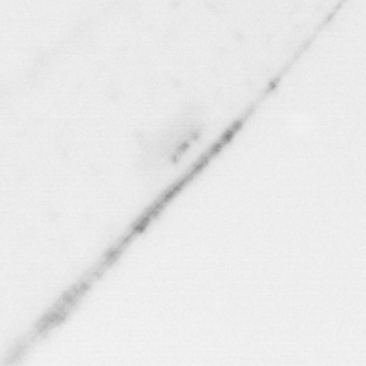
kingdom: Chromista
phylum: Ochrophyta
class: Bacillariophyceae
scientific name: Bacillariophyceae
